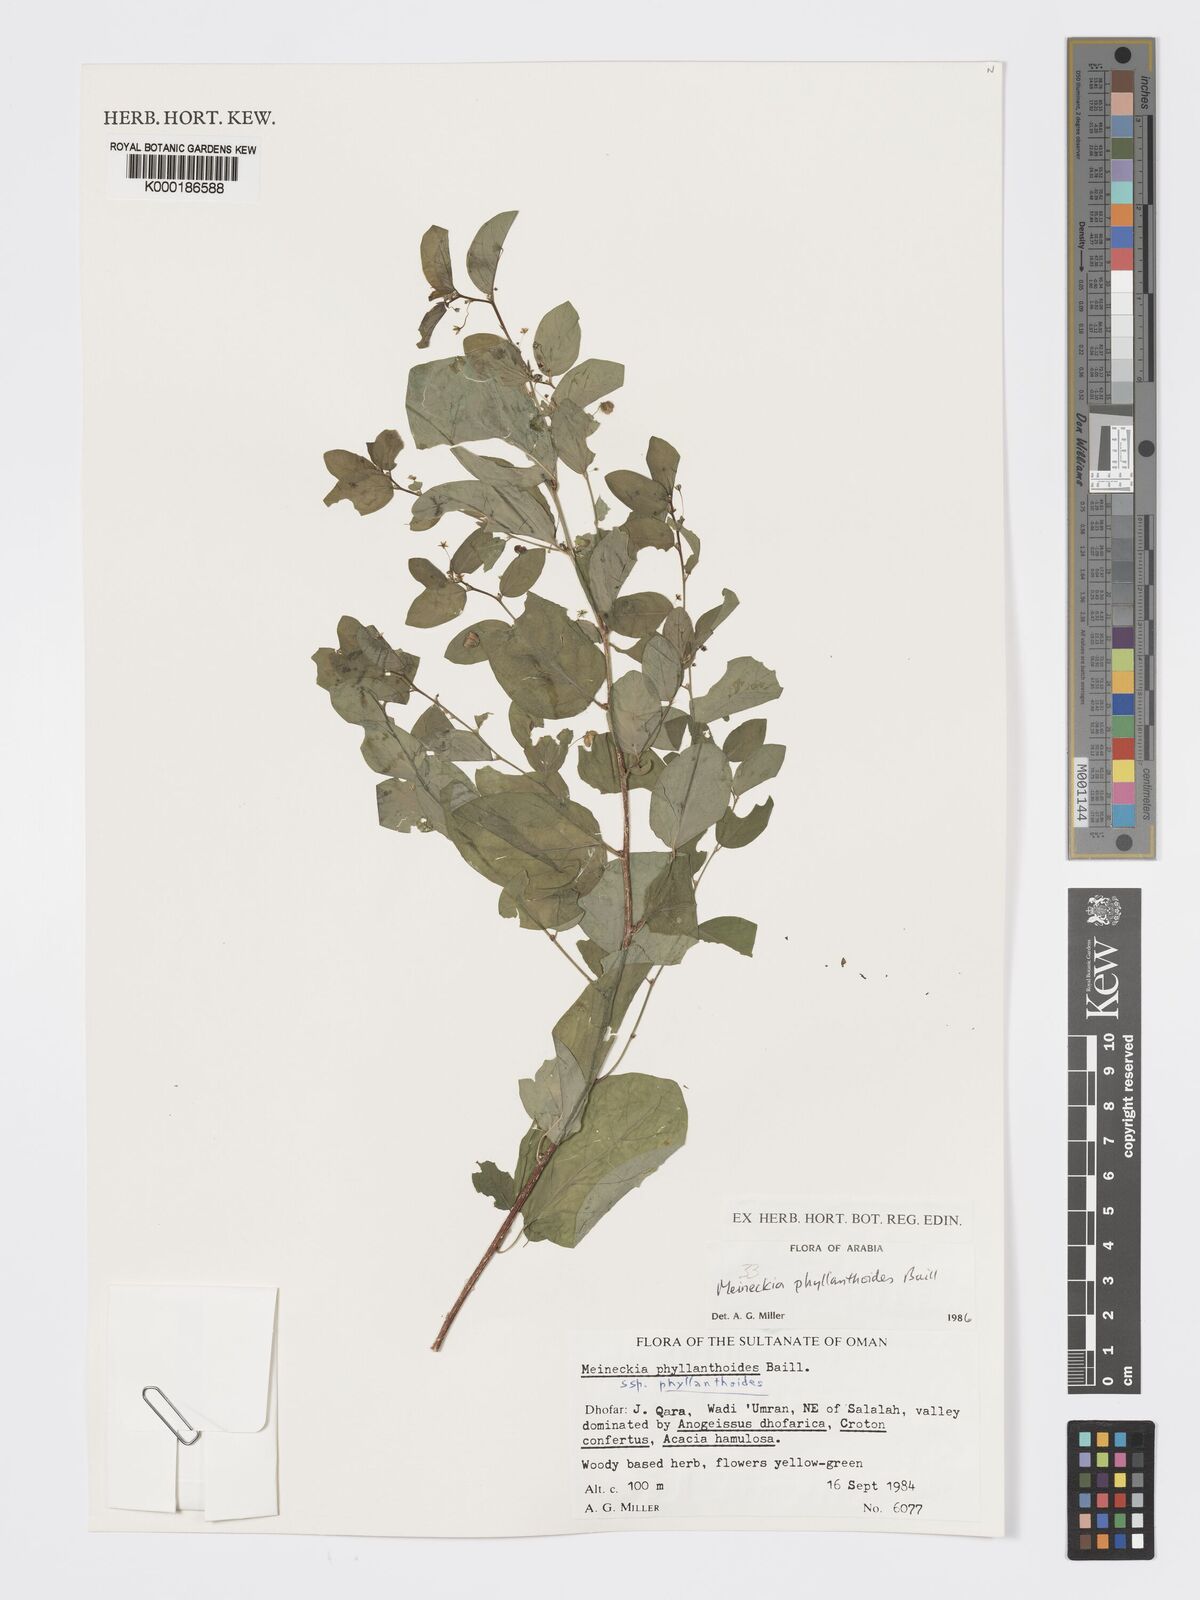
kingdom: Plantae
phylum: Tracheophyta
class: Magnoliopsida
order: Malpighiales
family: Phyllanthaceae
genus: Meineckia
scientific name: Meineckia phyllanthoides
